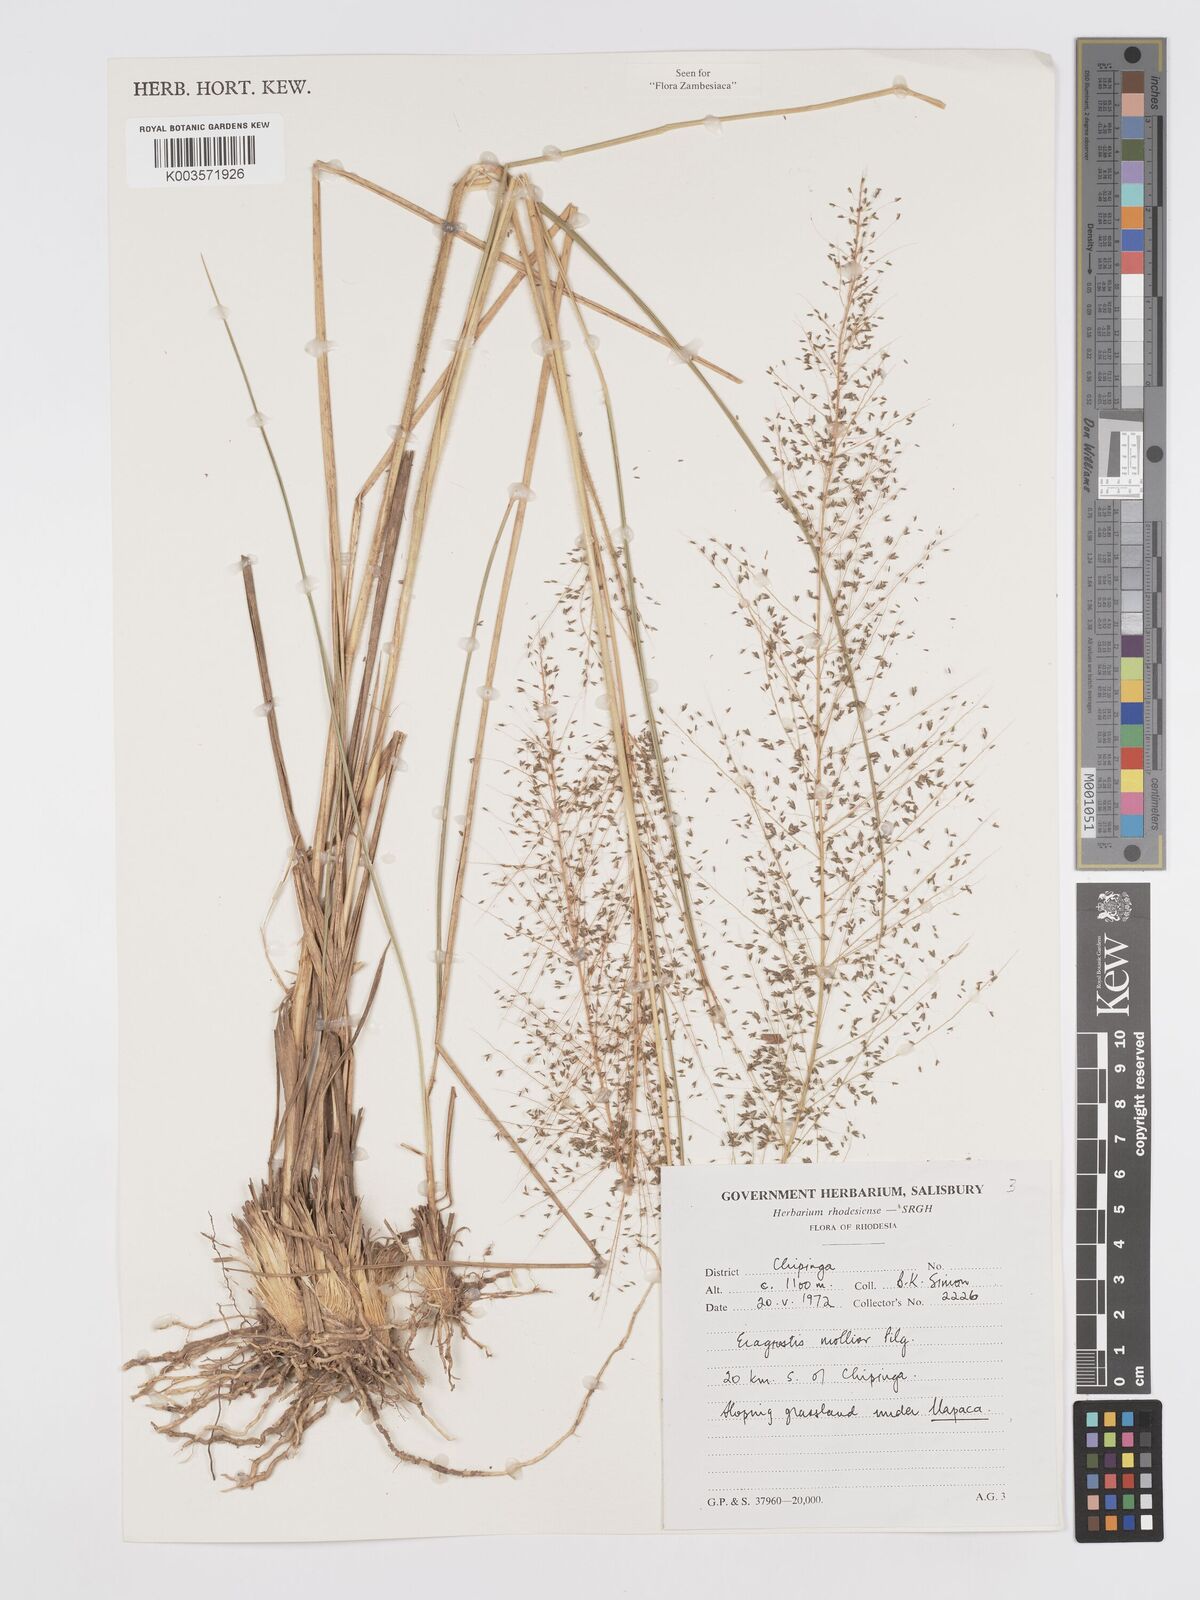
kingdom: Plantae
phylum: Tracheophyta
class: Liliopsida
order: Poales
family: Poaceae
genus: Eragrostis
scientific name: Eragrostis mollior
